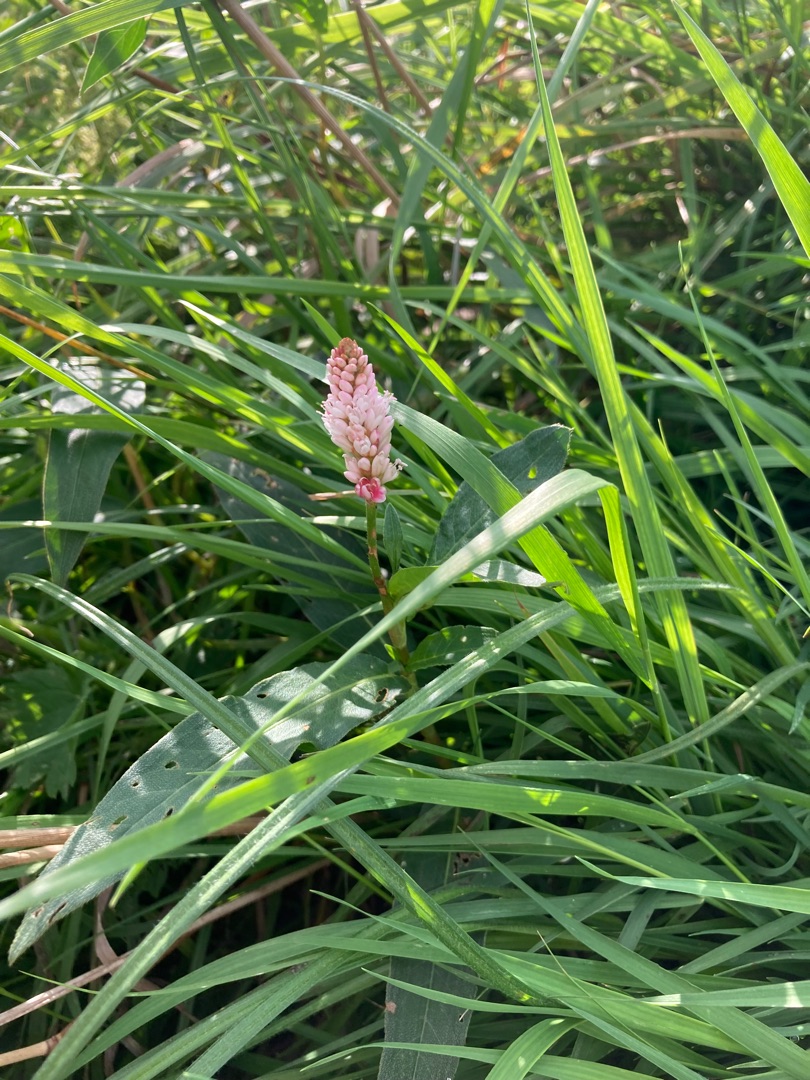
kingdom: Plantae
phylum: Tracheophyta
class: Magnoliopsida
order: Caryophyllales
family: Polygonaceae
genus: Persicaria
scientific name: Persicaria amphibia
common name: Vand-pileurt
